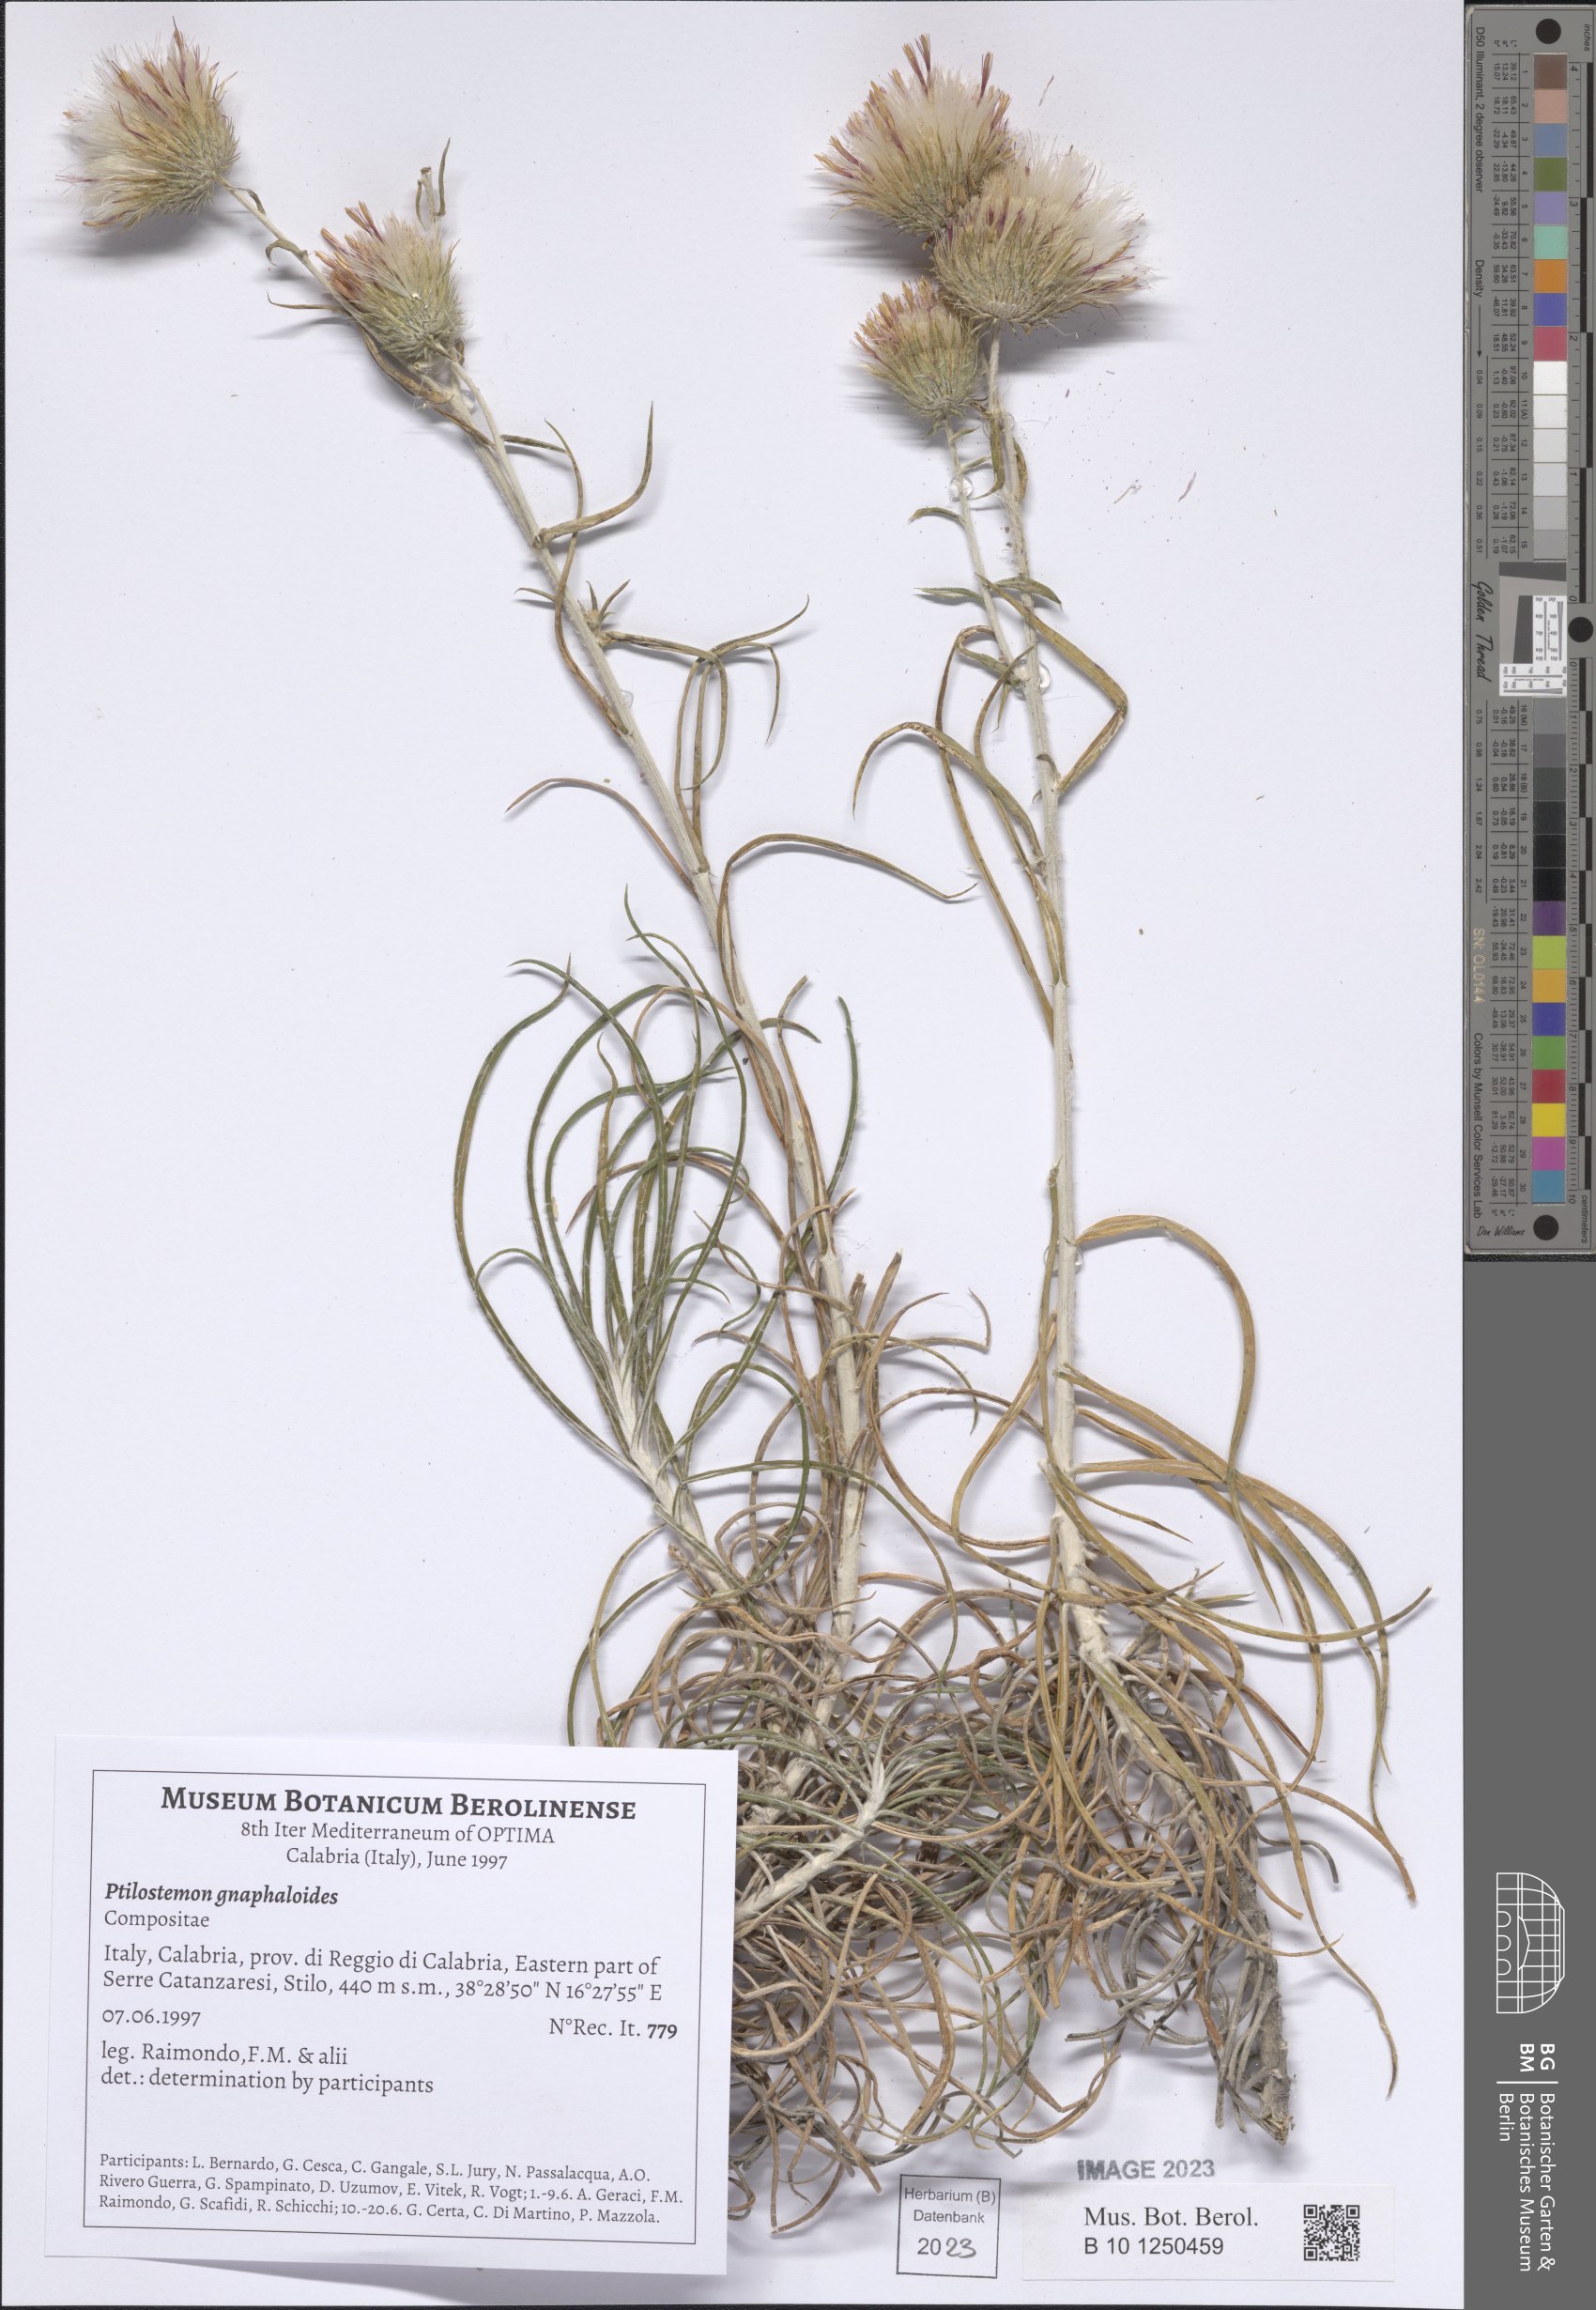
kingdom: Plantae
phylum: Tracheophyta
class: Magnoliopsida
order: Asterales
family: Asteraceae
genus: Ptilostemon
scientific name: Ptilostemon gnaphaloides
